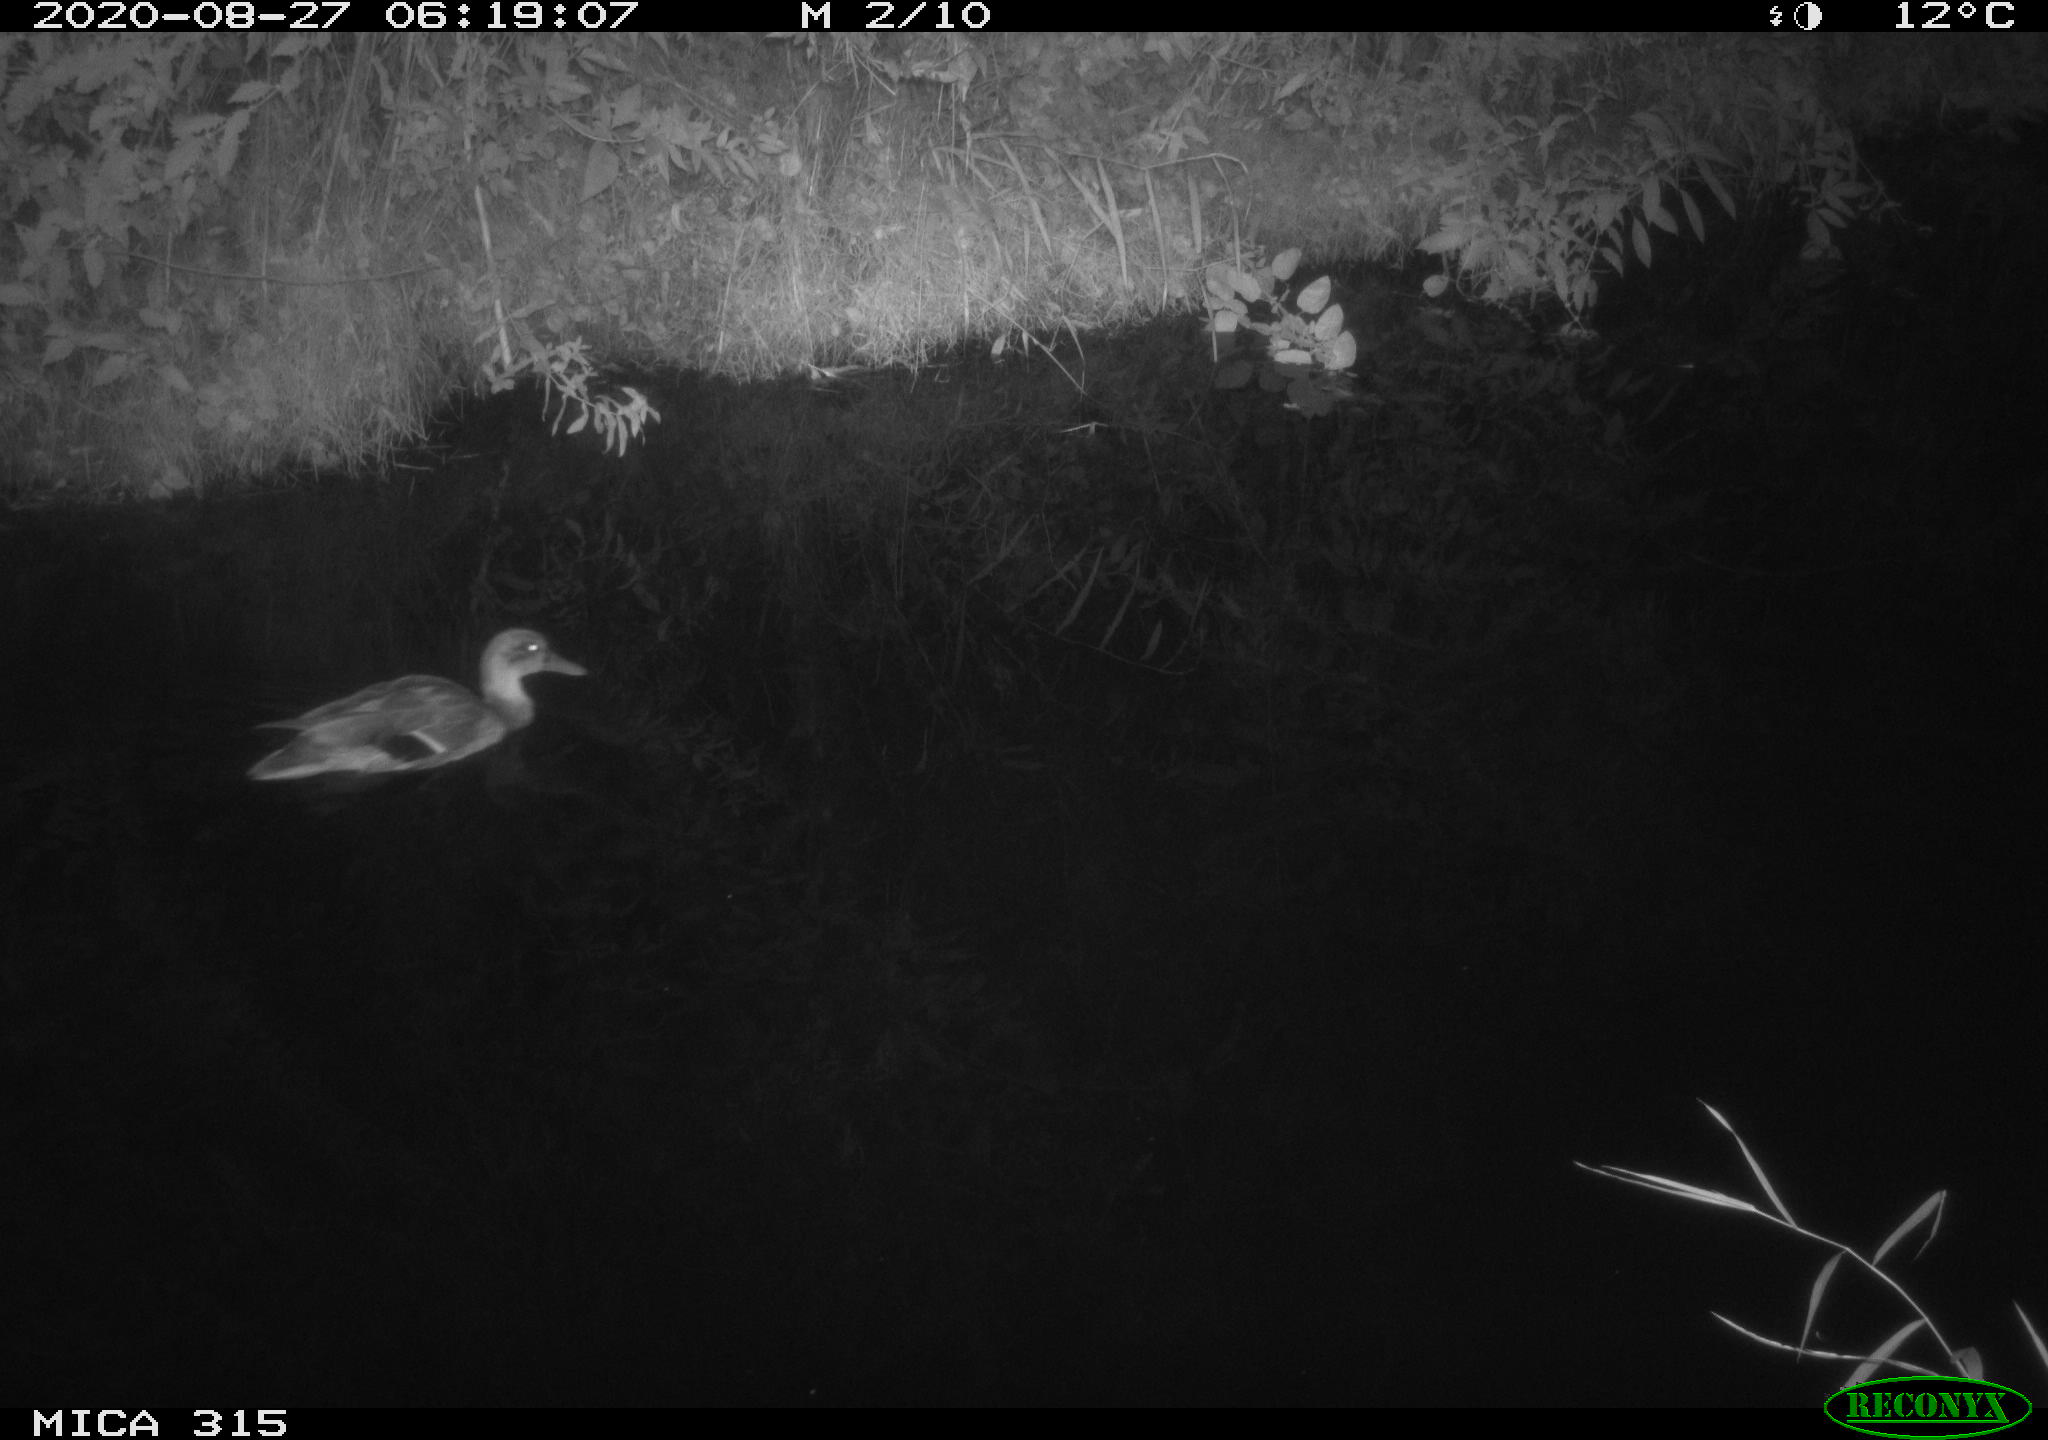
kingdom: Animalia
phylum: Chordata
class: Aves
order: Anseriformes
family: Anatidae
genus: Anas
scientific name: Anas platyrhynchos
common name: Mallard
